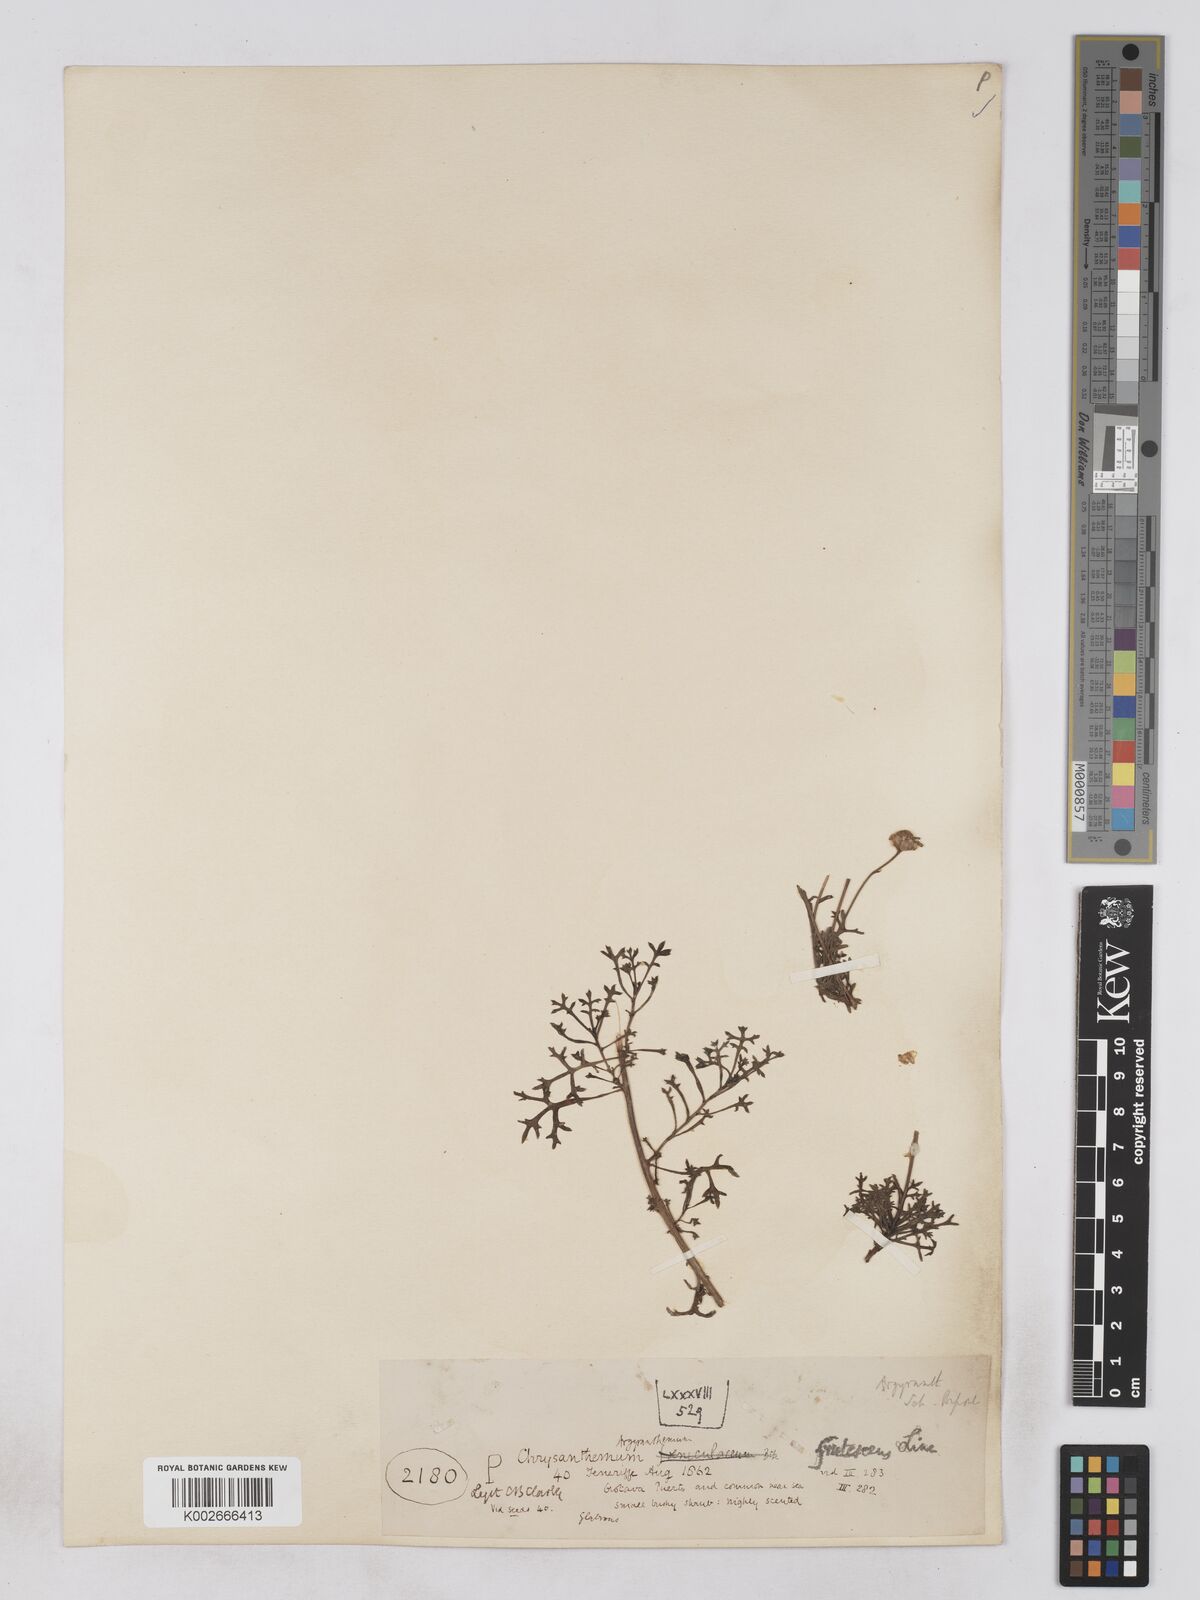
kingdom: Plantae
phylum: Tracheophyta
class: Magnoliopsida
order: Asterales
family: Asteraceae
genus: Argyranthemum
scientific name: Argyranthemum frutescens
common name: Paris daisy
